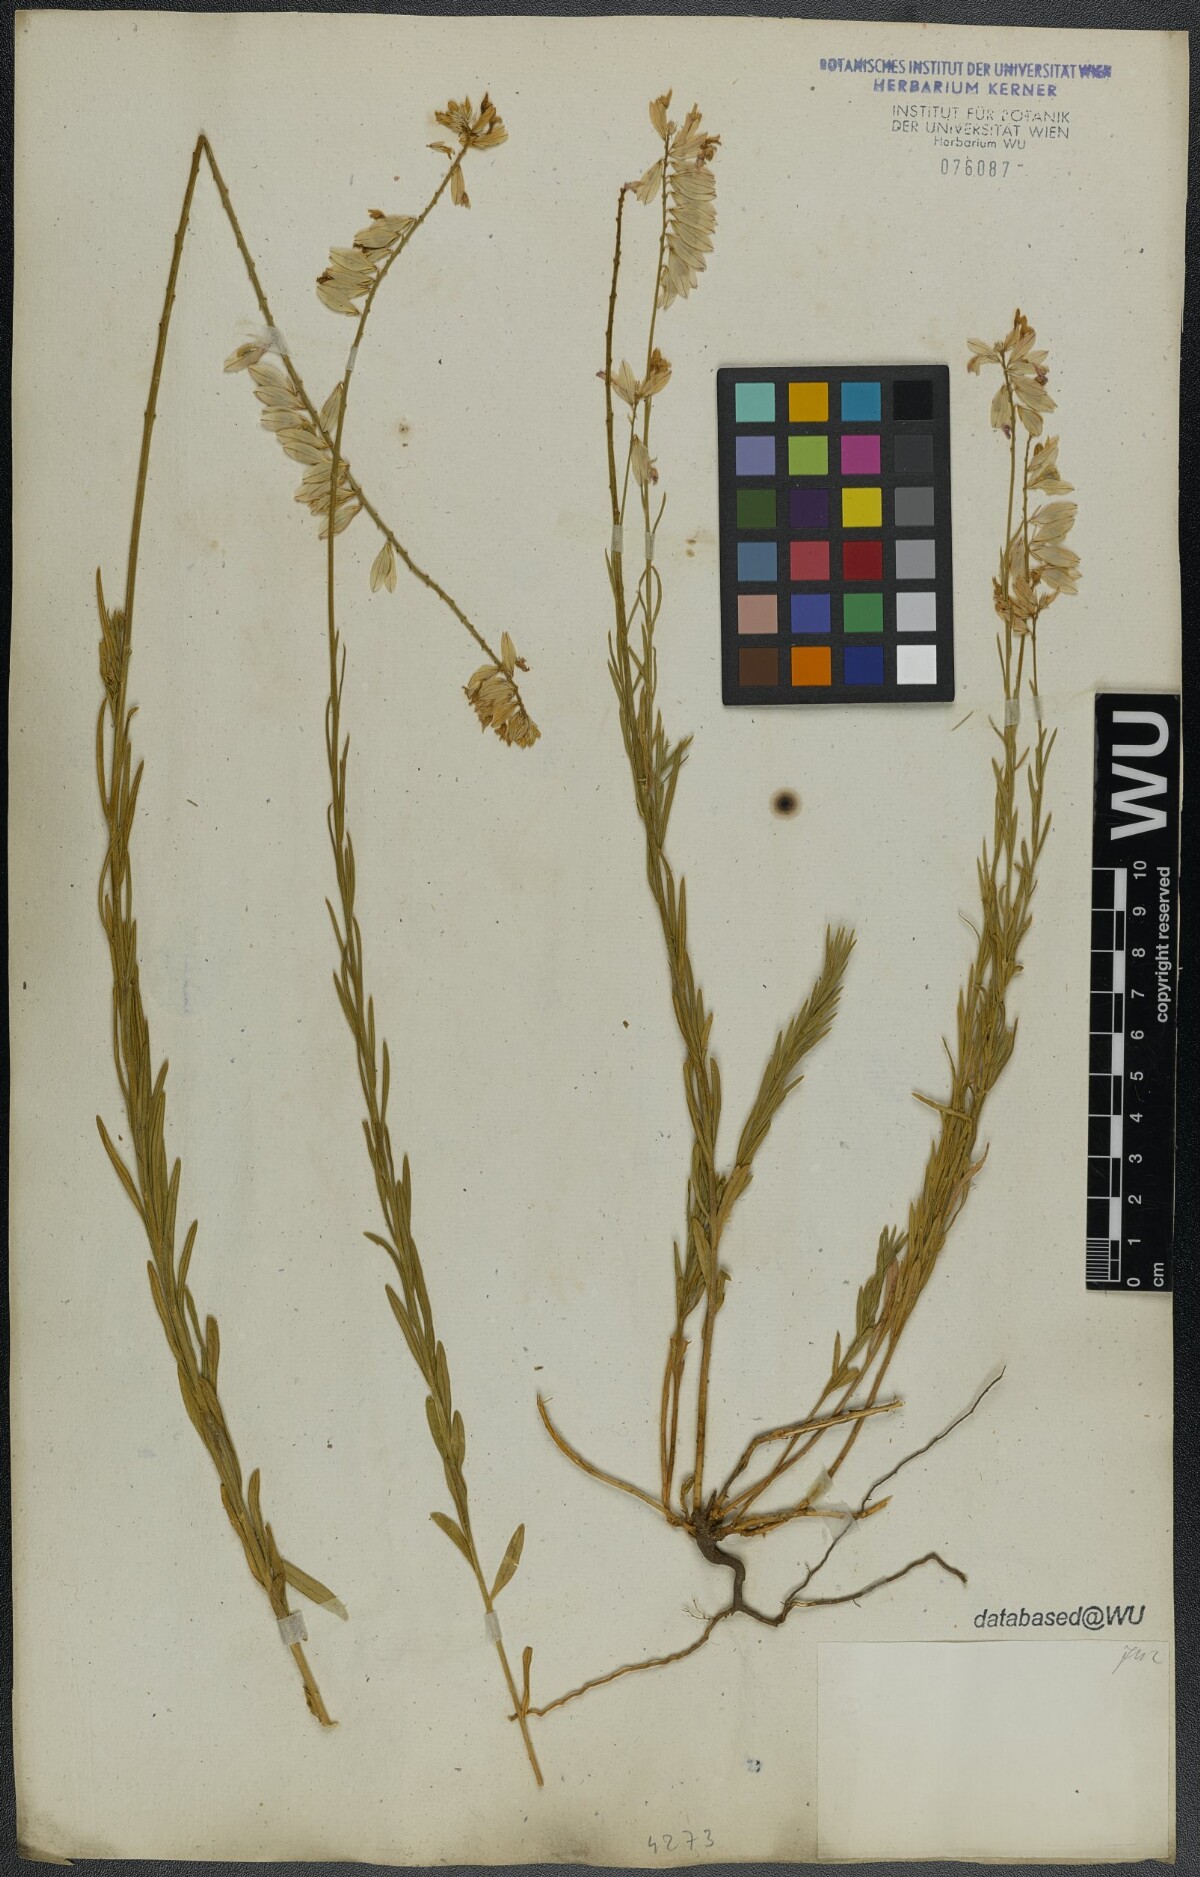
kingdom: Plantae
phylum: Tracheophyta
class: Magnoliopsida
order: Fabales
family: Polygalaceae
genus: Polygala
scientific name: Polygala major
